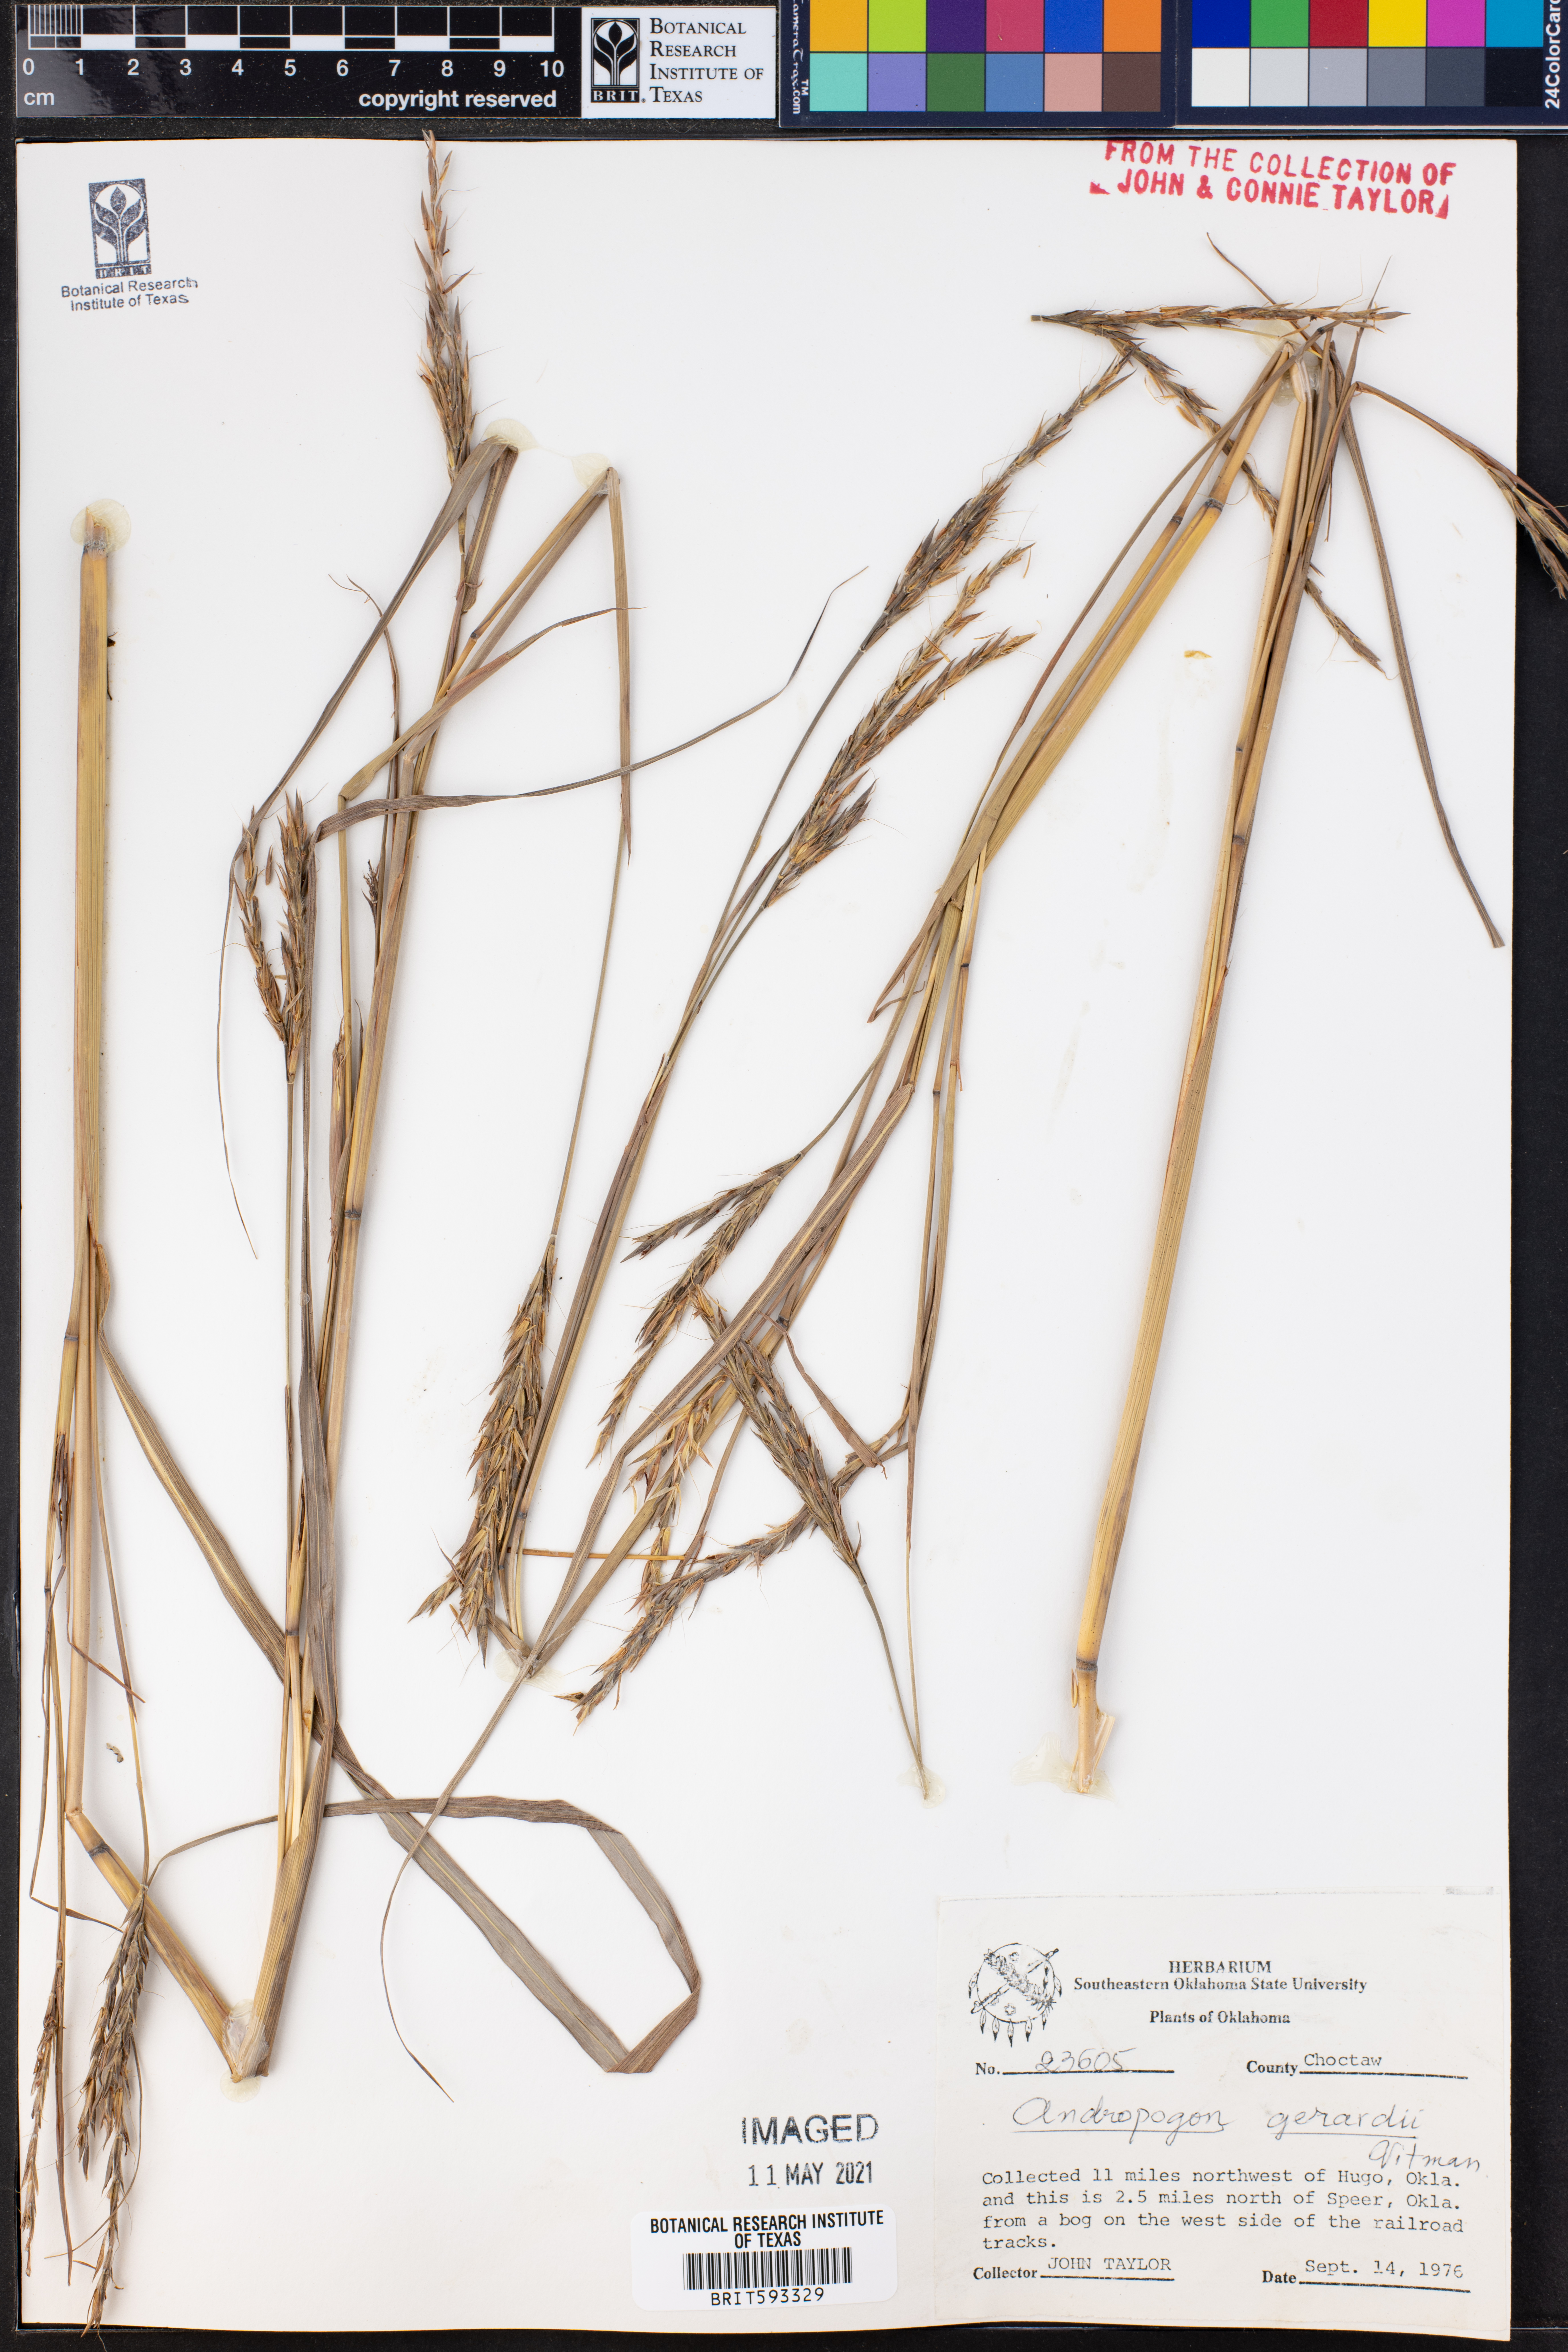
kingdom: Plantae
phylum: Tracheophyta
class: Liliopsida
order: Poales
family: Poaceae
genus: Andropogon
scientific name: Andropogon gerardi
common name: Big bluestem
